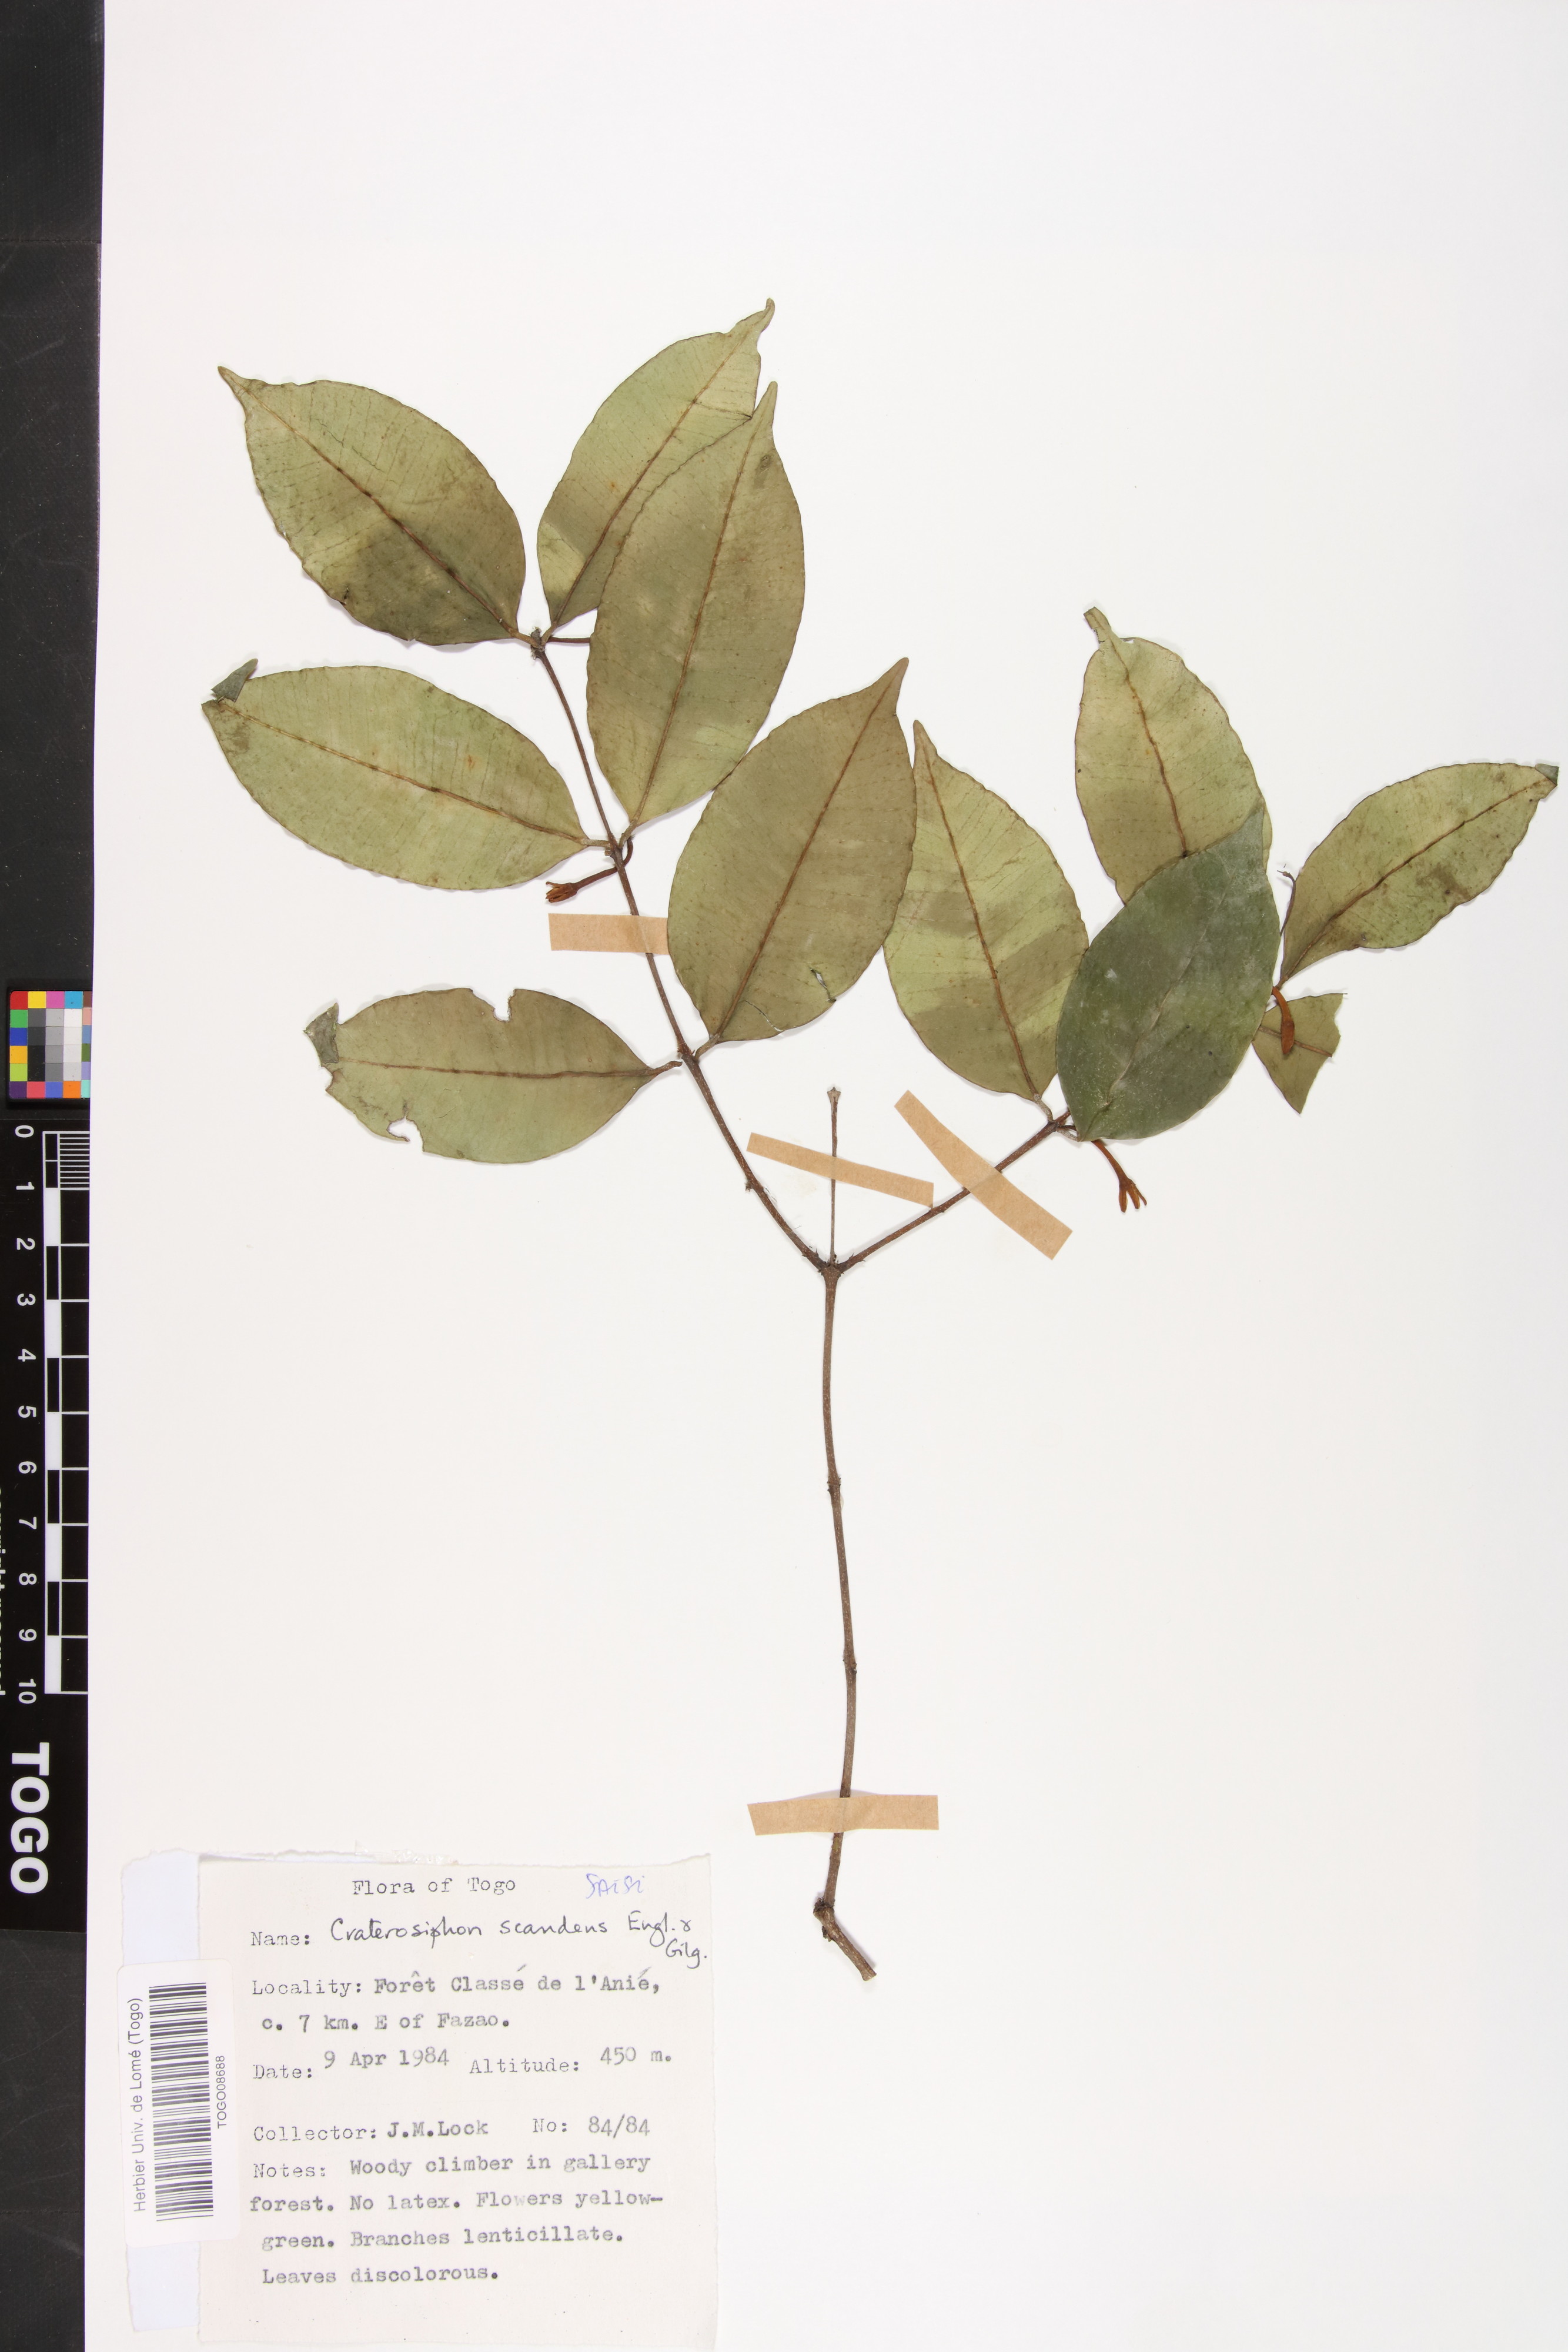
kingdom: Plantae
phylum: Tracheophyta
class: Magnoliopsida
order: Malvales
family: Thymelaeaceae
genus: Craterosiphon
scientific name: Craterosiphon scandens
